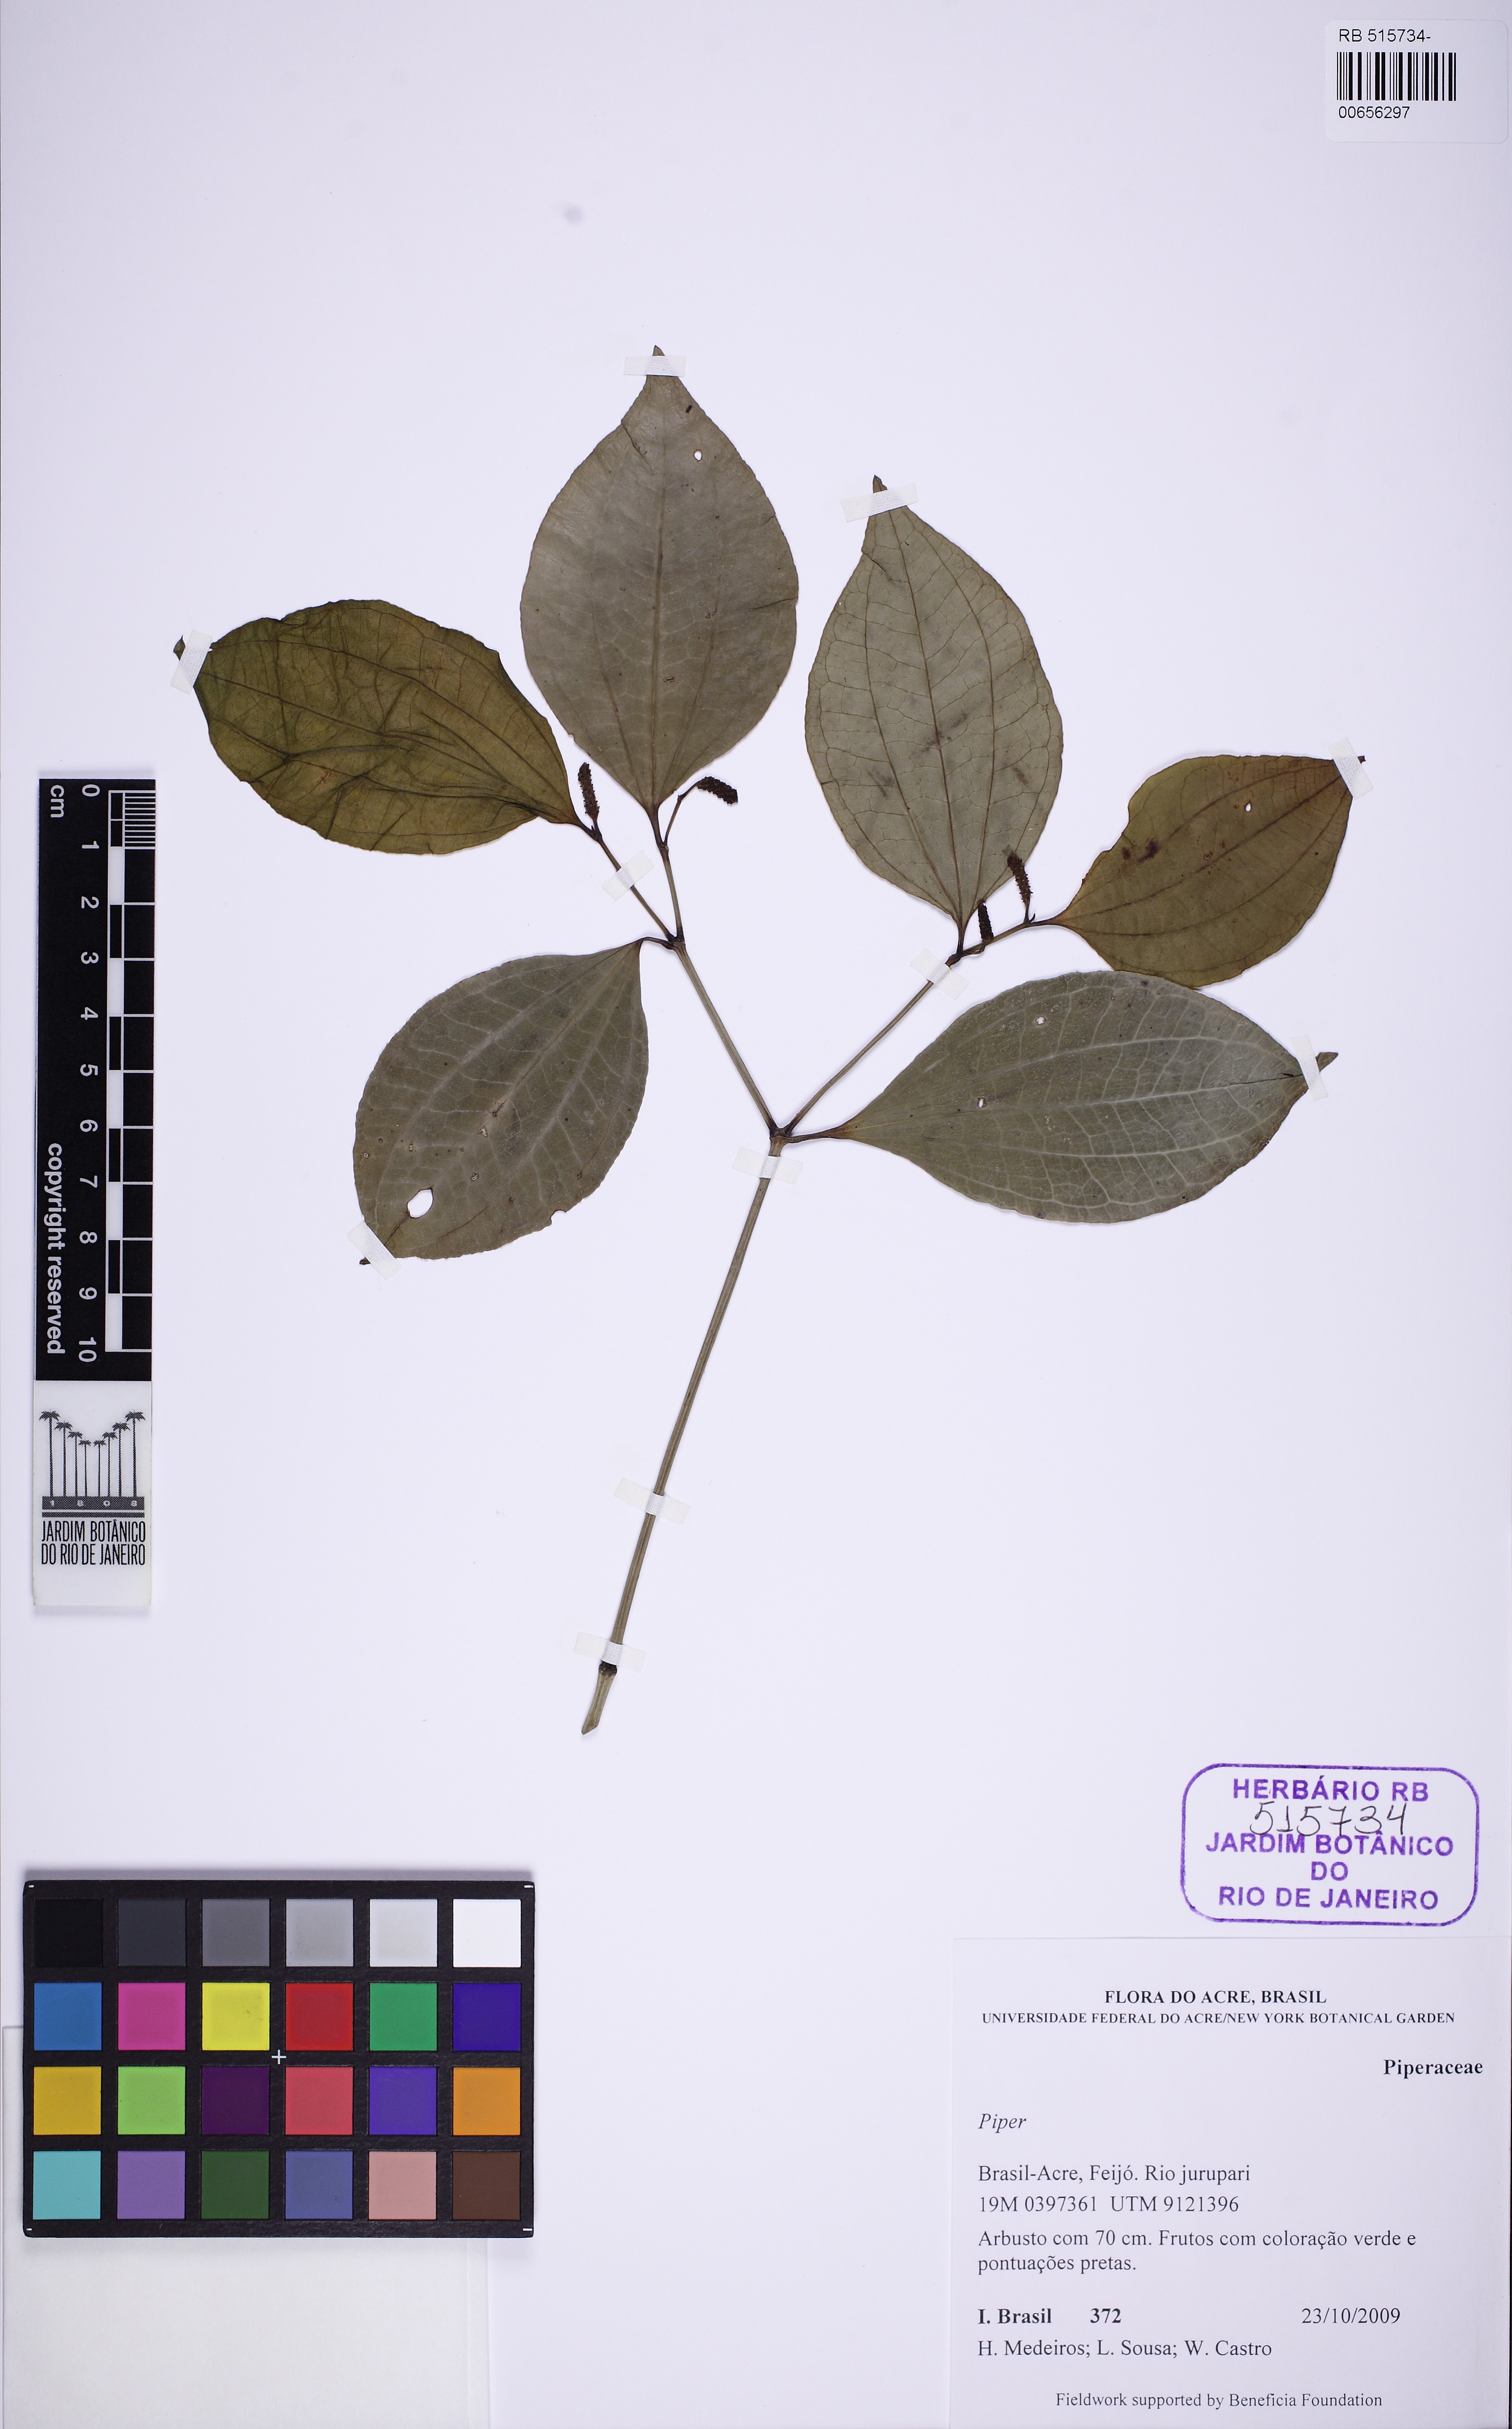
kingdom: Plantae
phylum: Tracheophyta
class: Magnoliopsida
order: Piperales
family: Piperaceae
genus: Piper
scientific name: Piper
